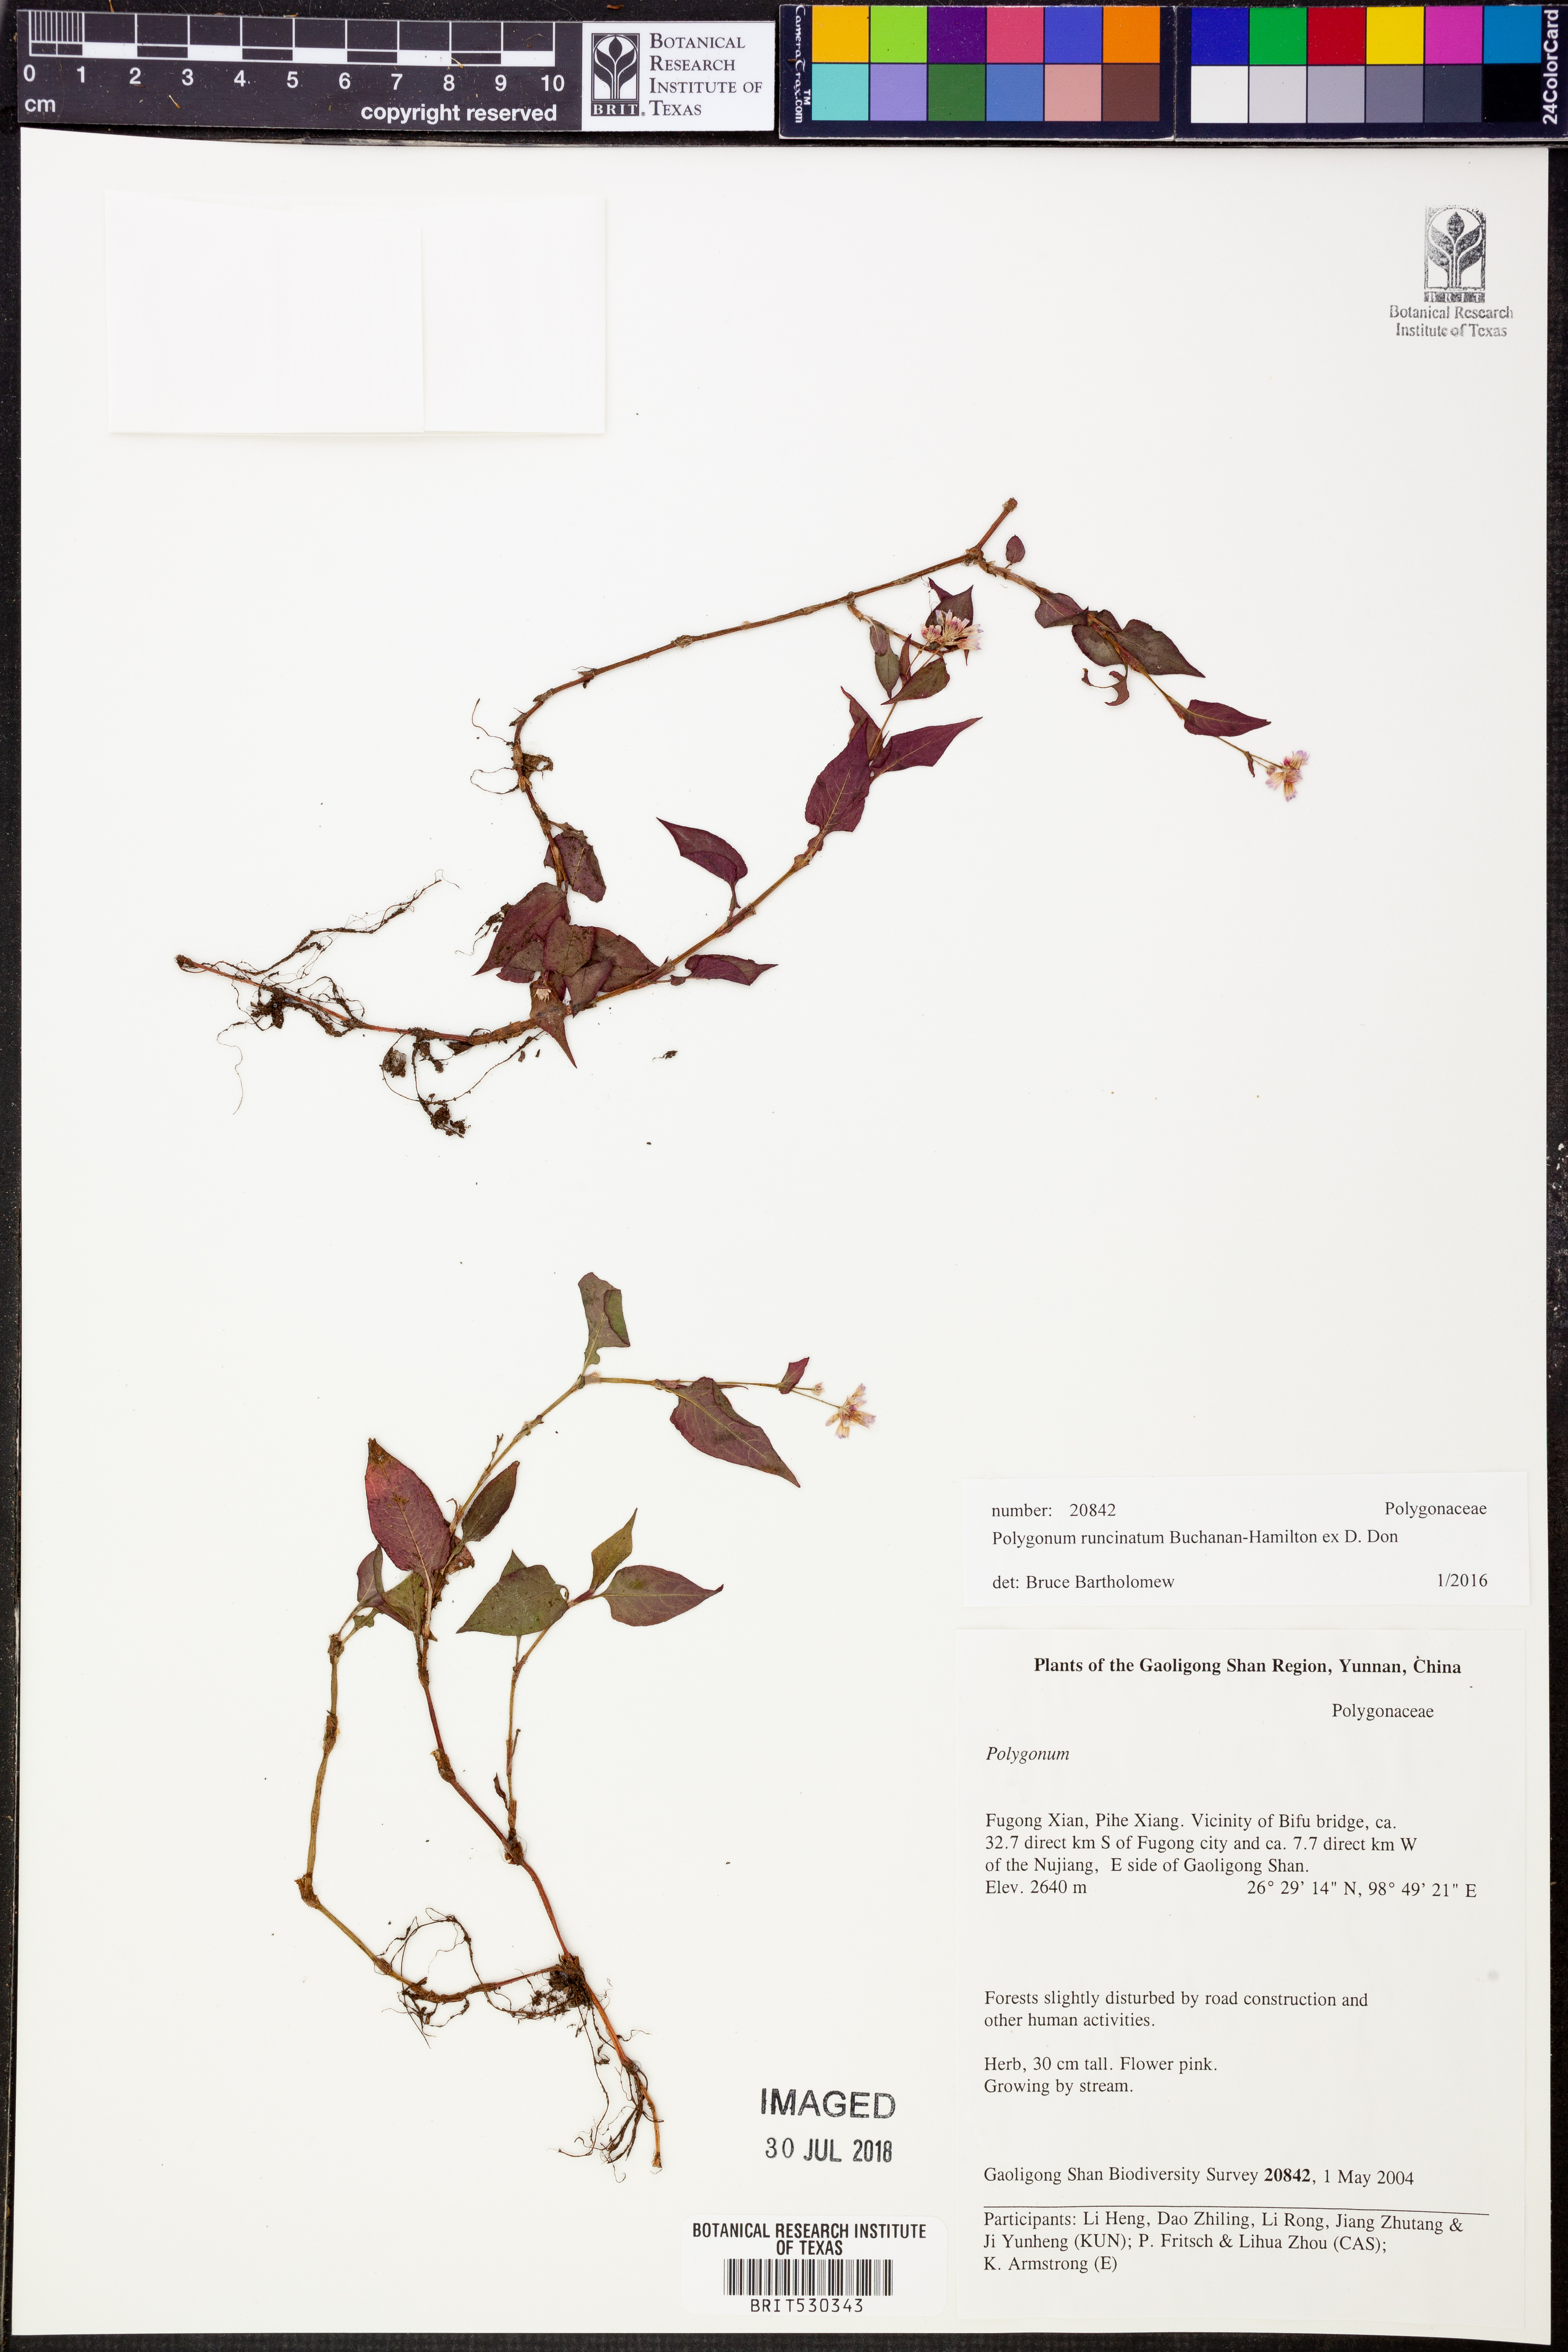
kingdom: Plantae
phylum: Tracheophyta
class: Magnoliopsida
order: Caryophyllales
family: Polygonaceae
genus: Persicaria
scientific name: Persicaria runcinata
